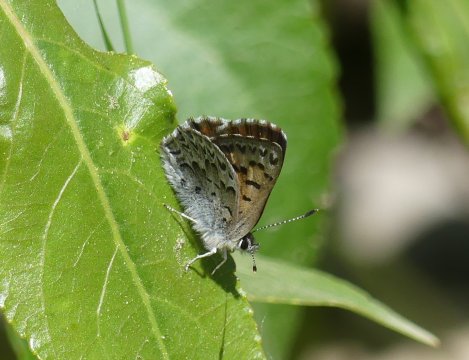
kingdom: Animalia
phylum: Arthropoda
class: Insecta
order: Lepidoptera
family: Lycaenidae
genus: Lycaena
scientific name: Lycaena mariposa
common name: Mariposa Copper
